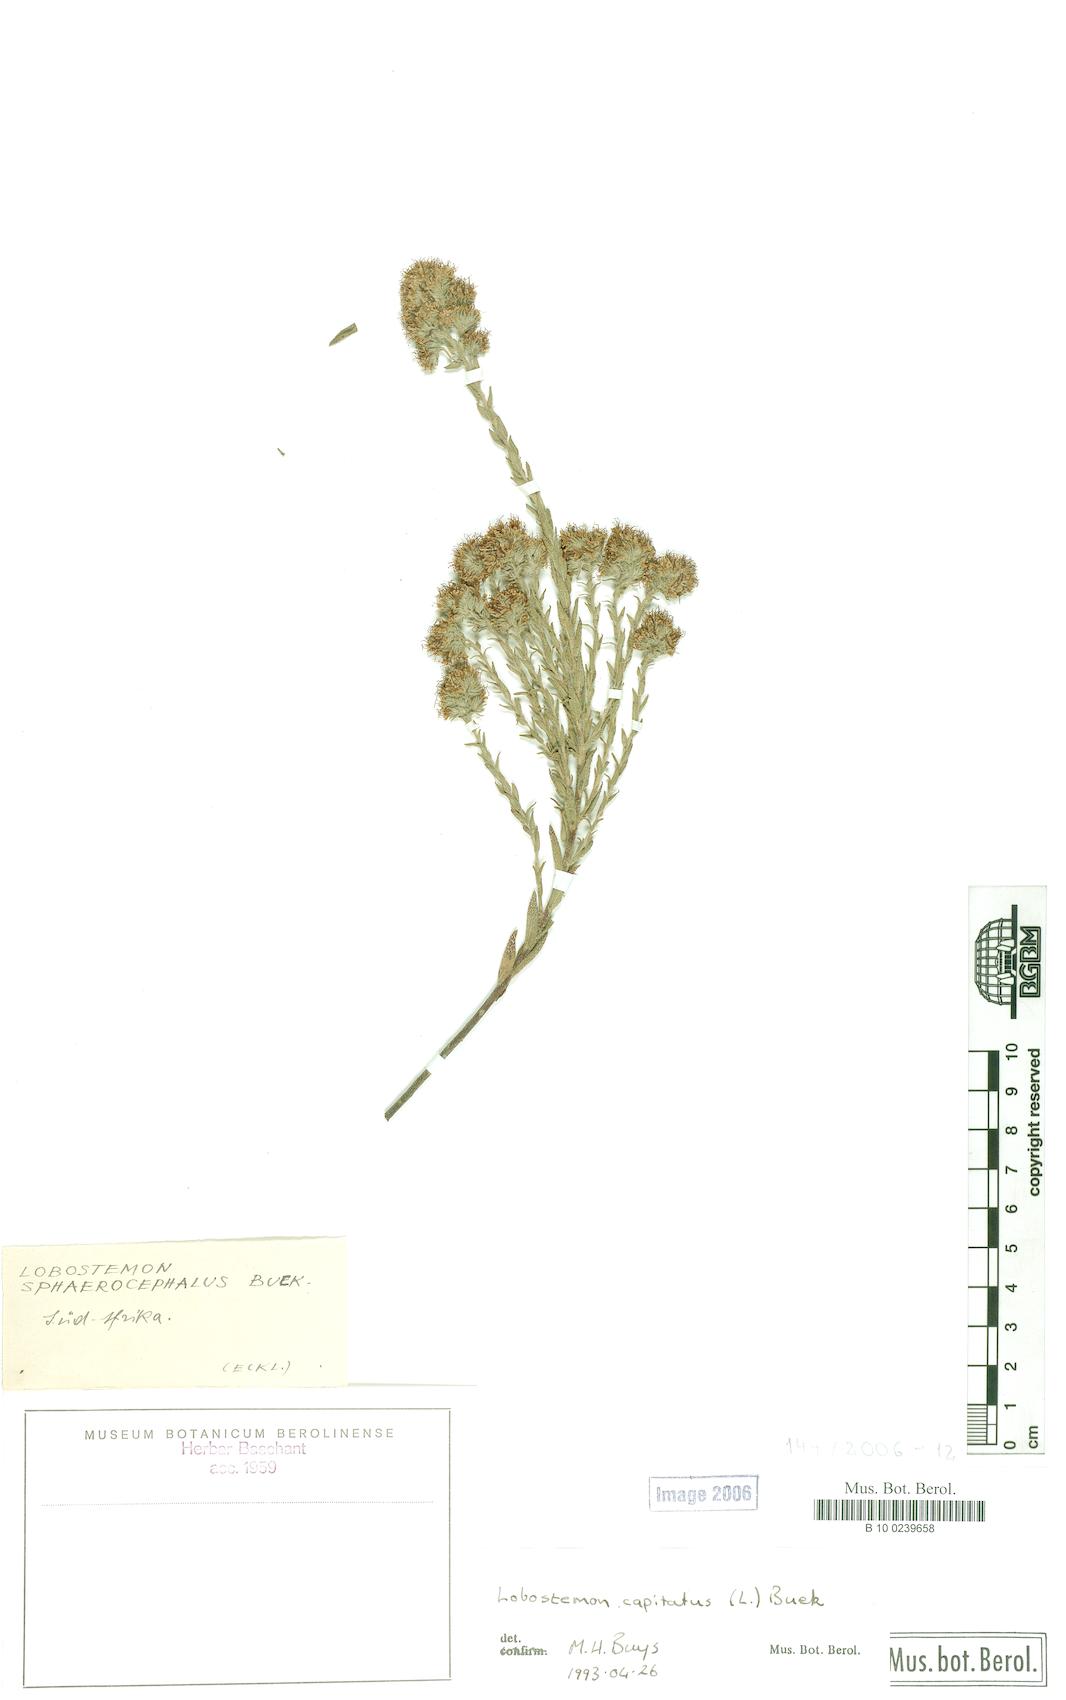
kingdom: Plantae
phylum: Tracheophyta
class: Magnoliopsida
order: Boraginales
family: Boraginaceae
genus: Lobostemon
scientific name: Lobostemon capitatus
